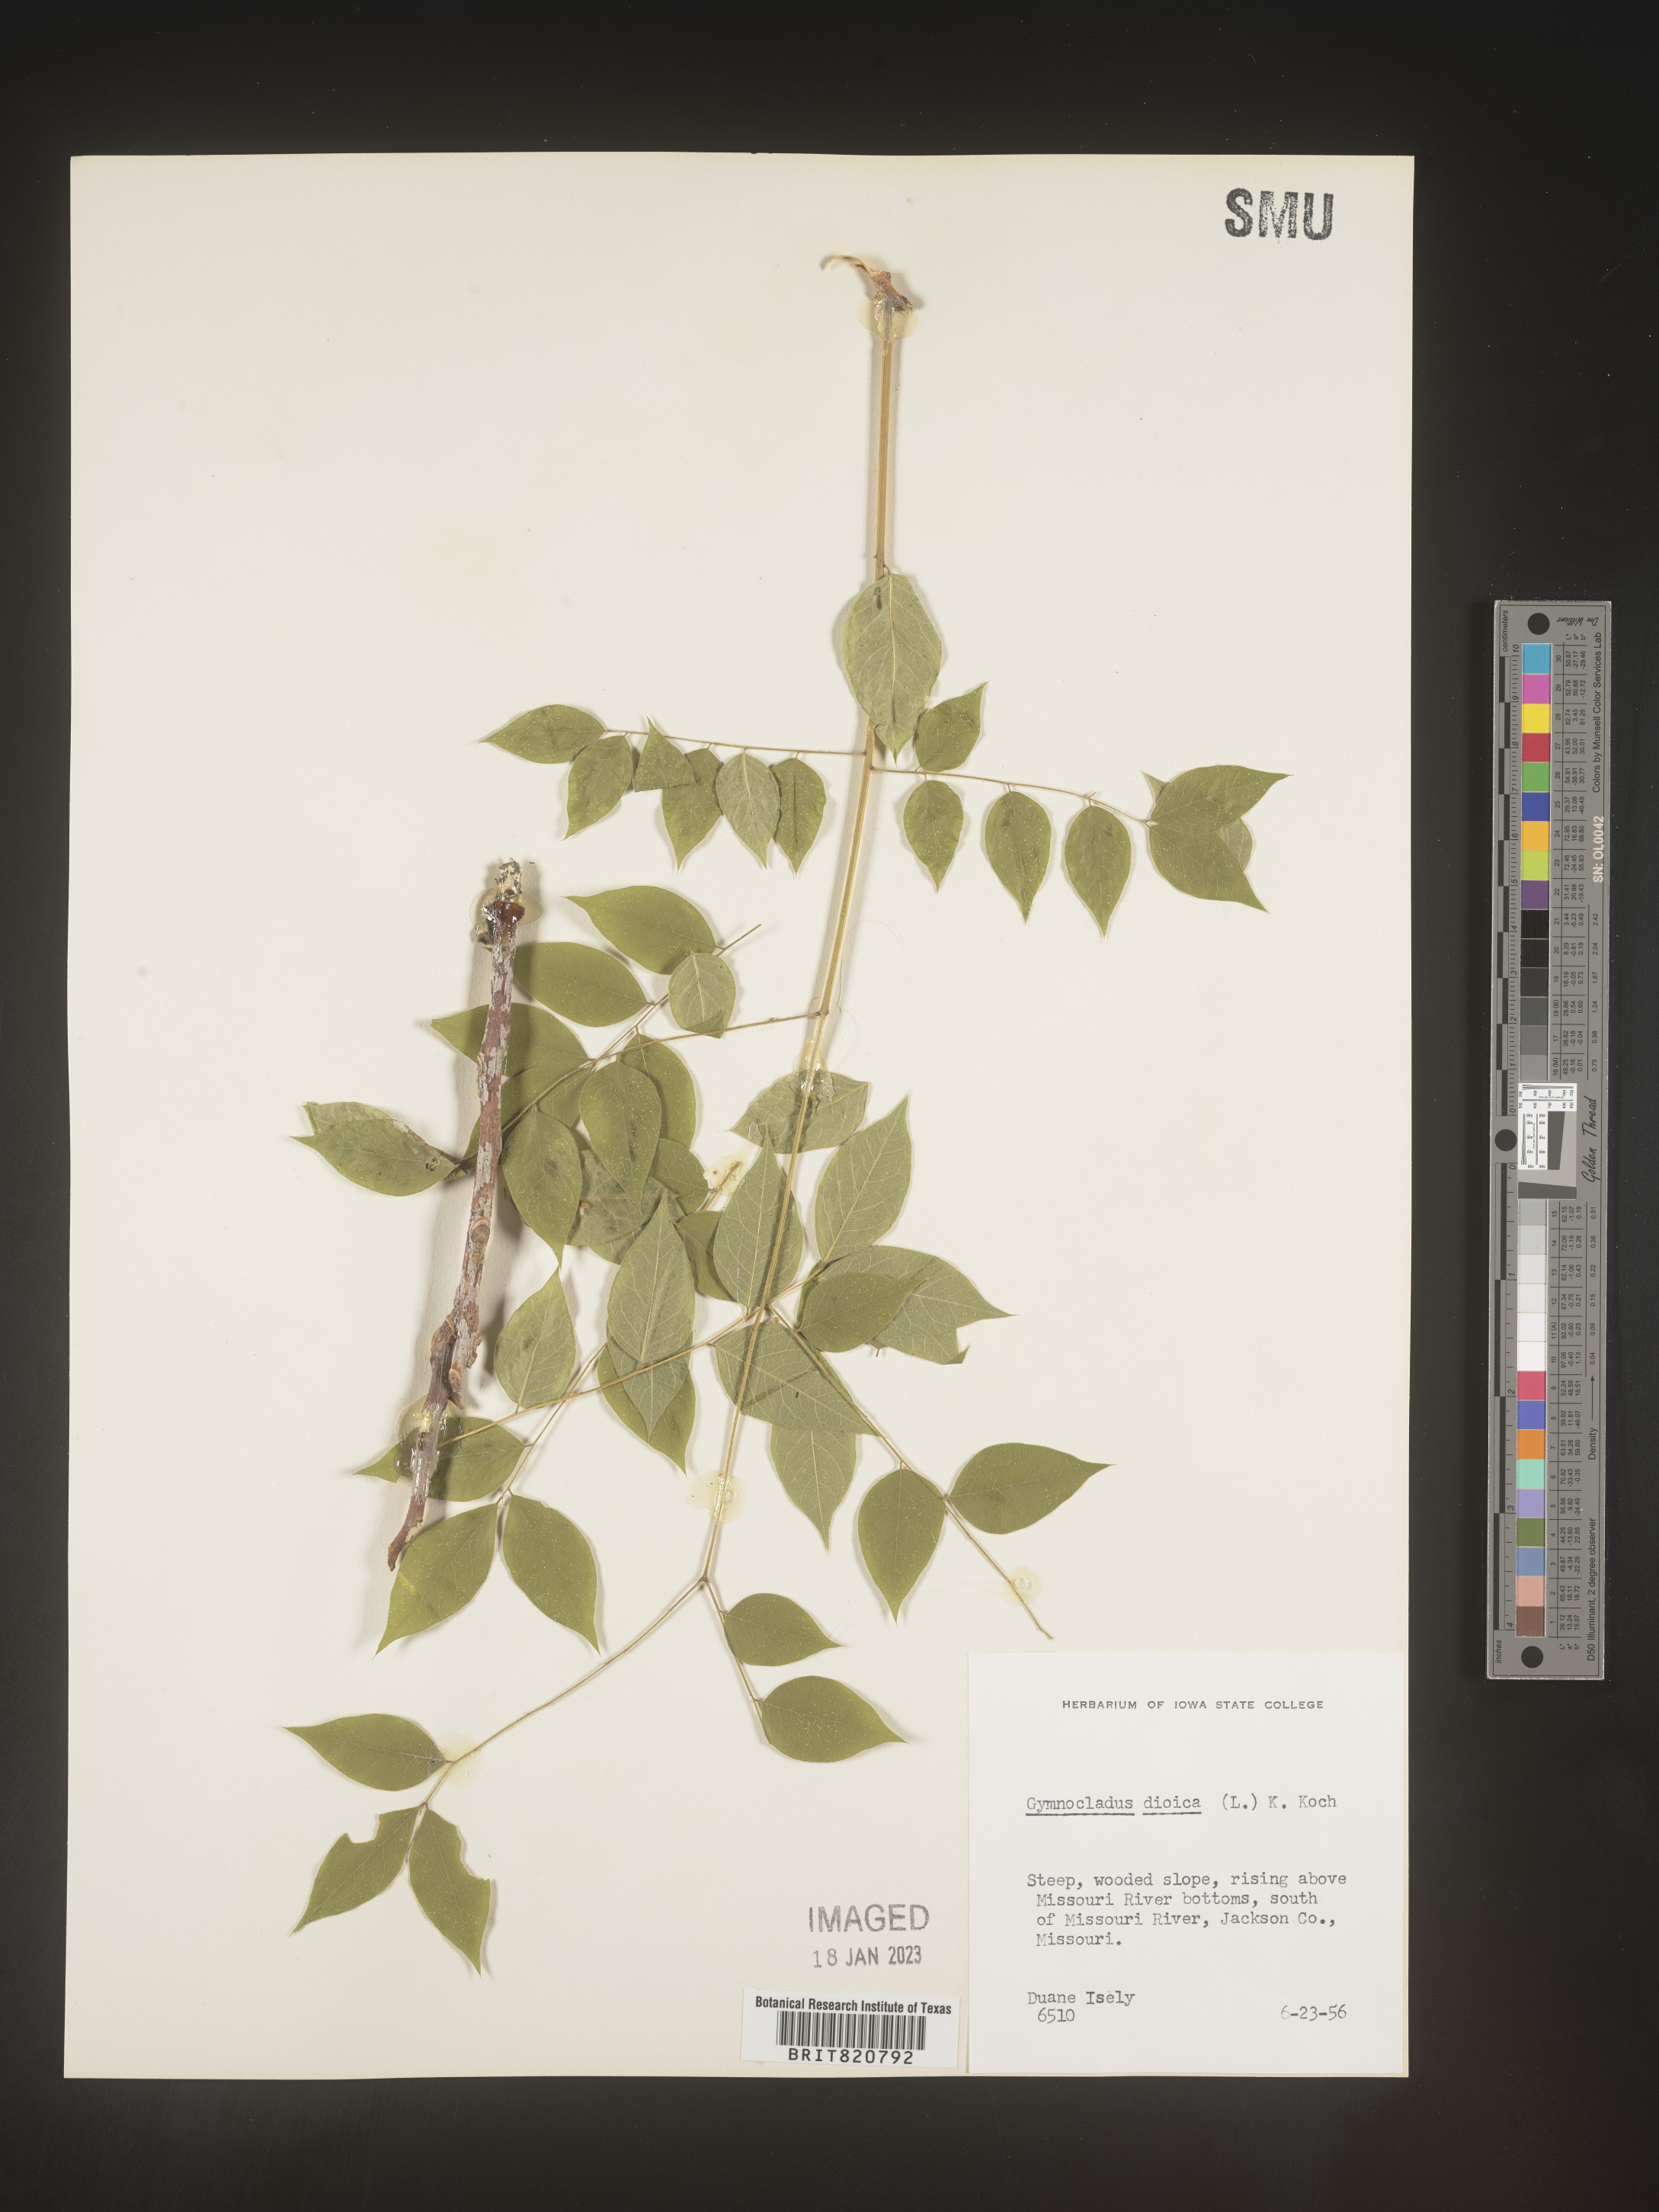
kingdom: Plantae
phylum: Tracheophyta
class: Magnoliopsida
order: Fabales
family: Fabaceae
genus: Gymnocladus
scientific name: Gymnocladus dioicus
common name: Kentucky coffee-tree
